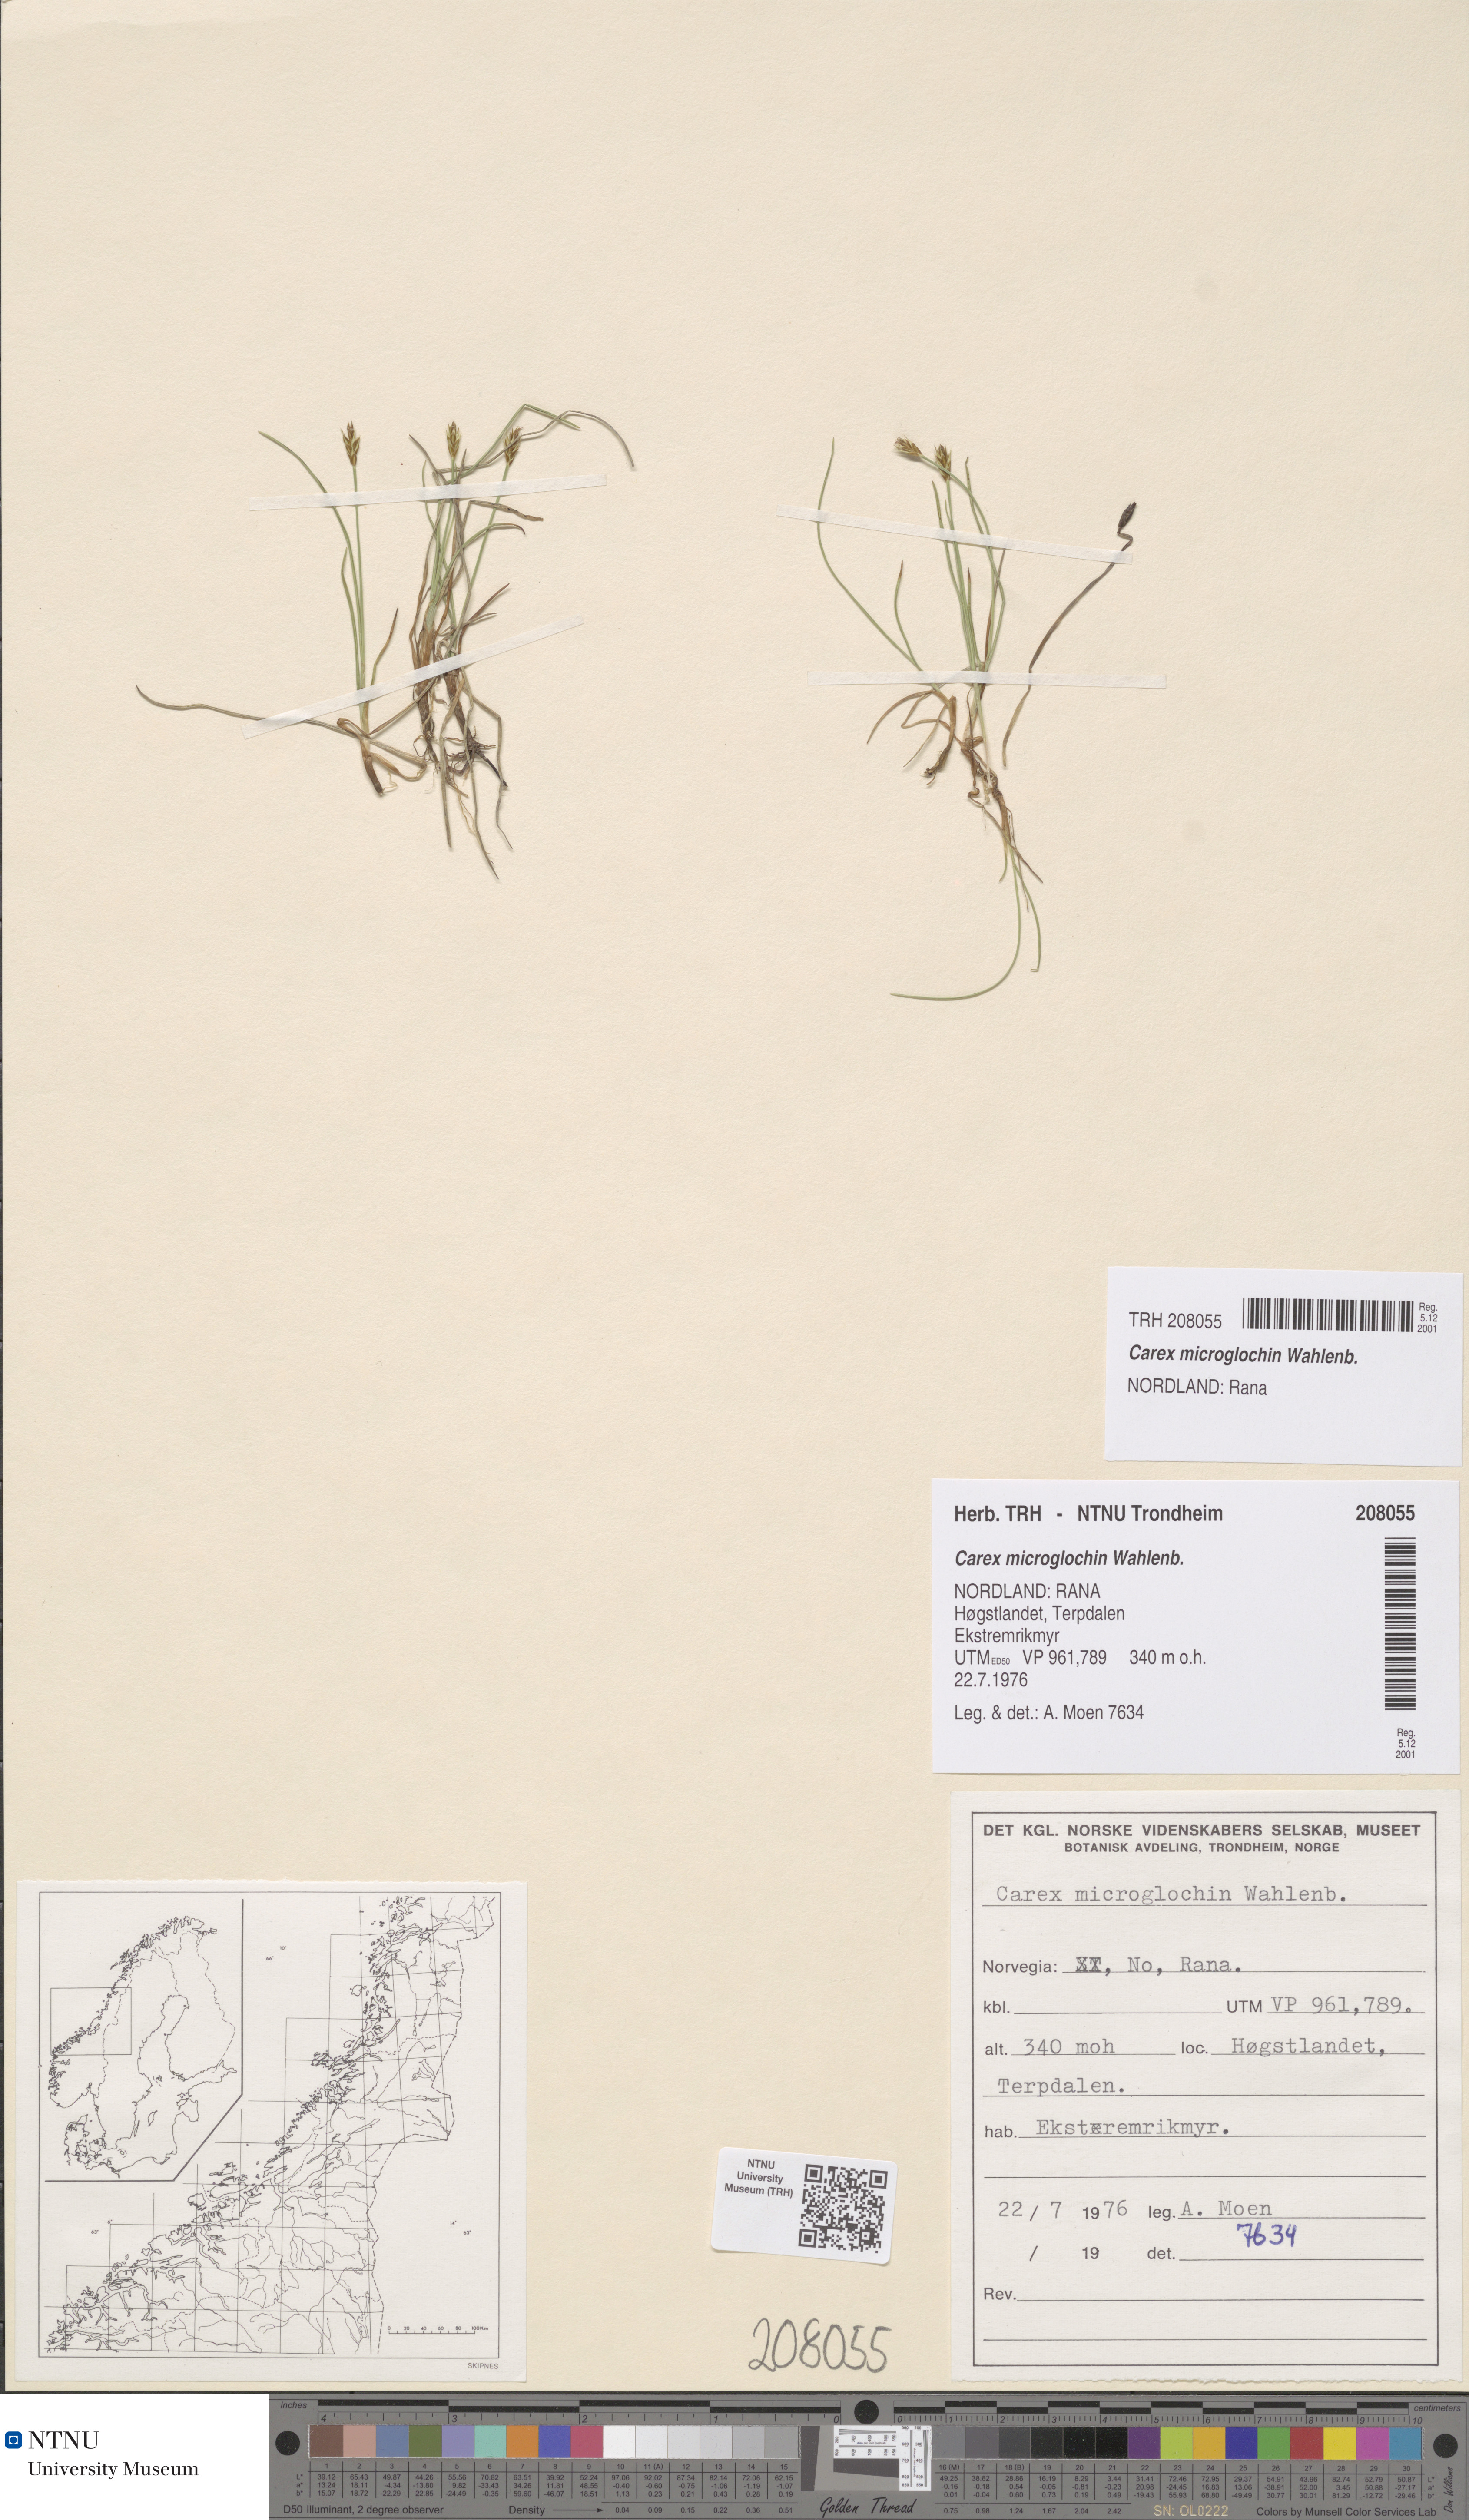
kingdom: Plantae
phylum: Tracheophyta
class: Liliopsida
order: Poales
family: Cyperaceae
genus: Carex
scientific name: Carex microglochin
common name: Bristle sedge
